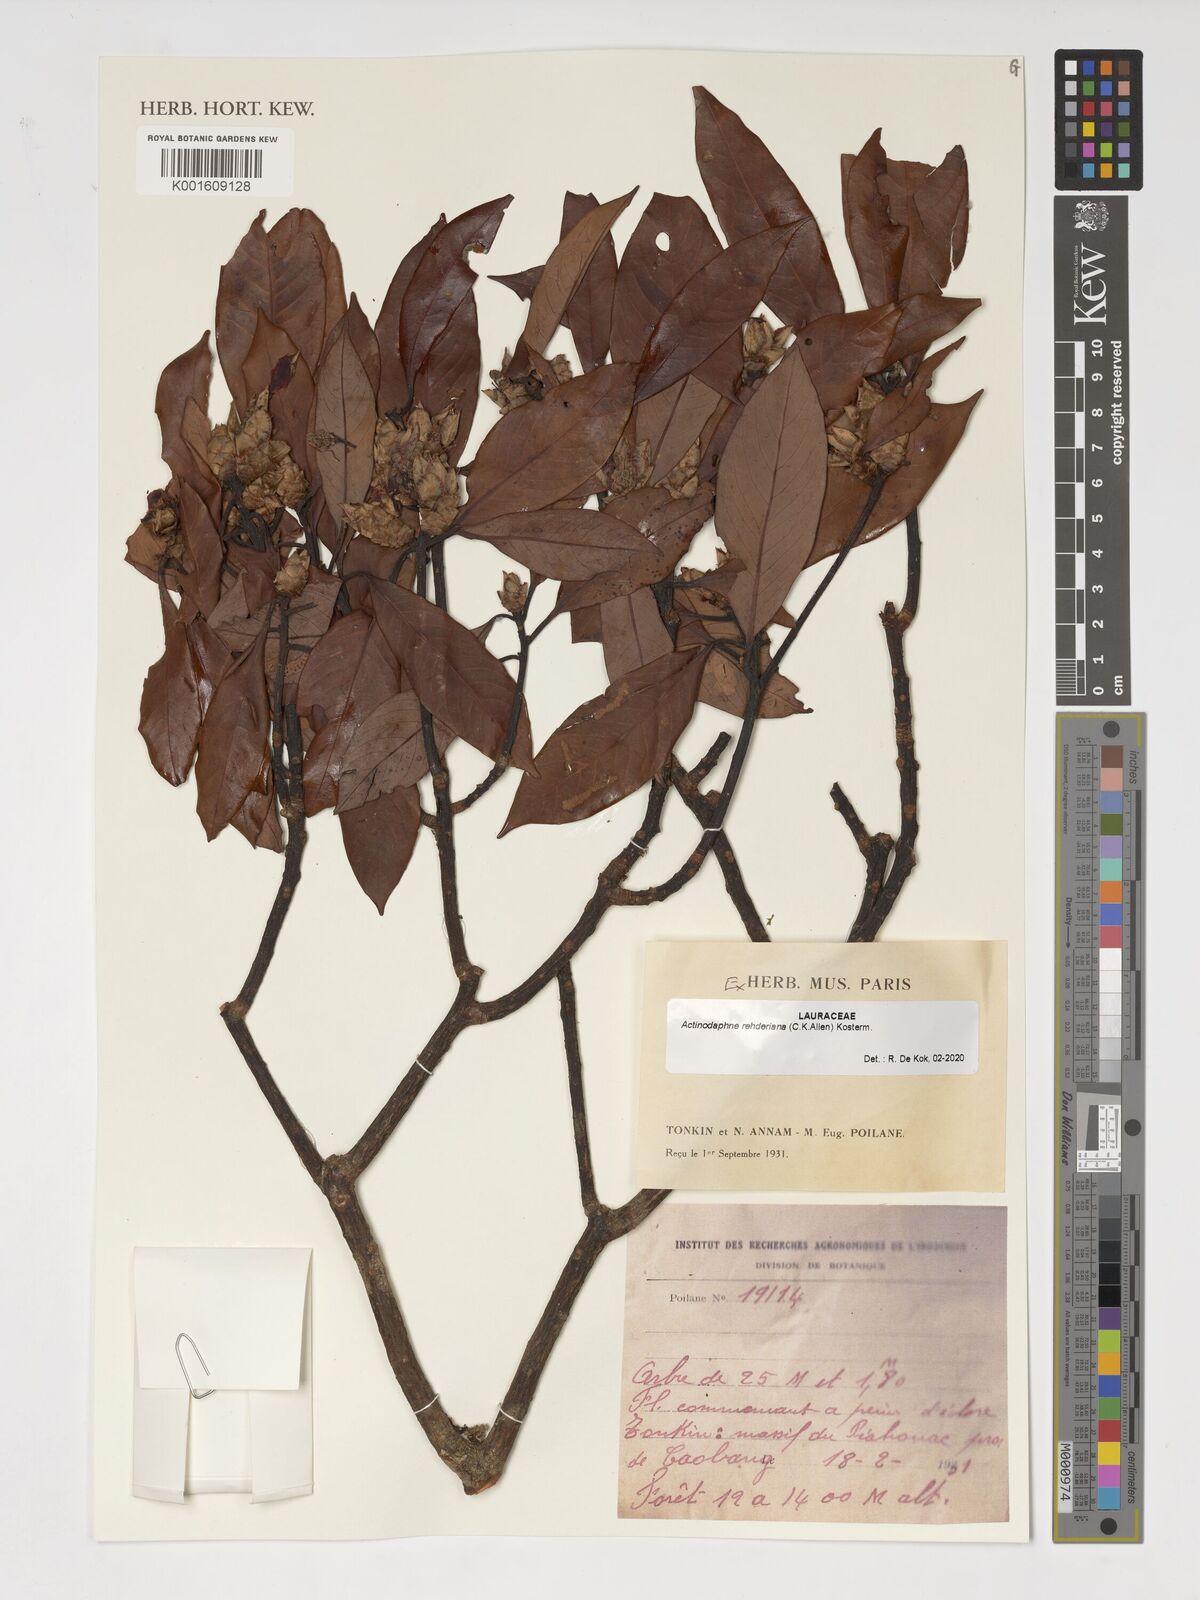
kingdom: Plantae
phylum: Tracheophyta
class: Magnoliopsida
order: Laurales
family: Lauraceae
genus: Actinodaphne
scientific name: Actinodaphne
